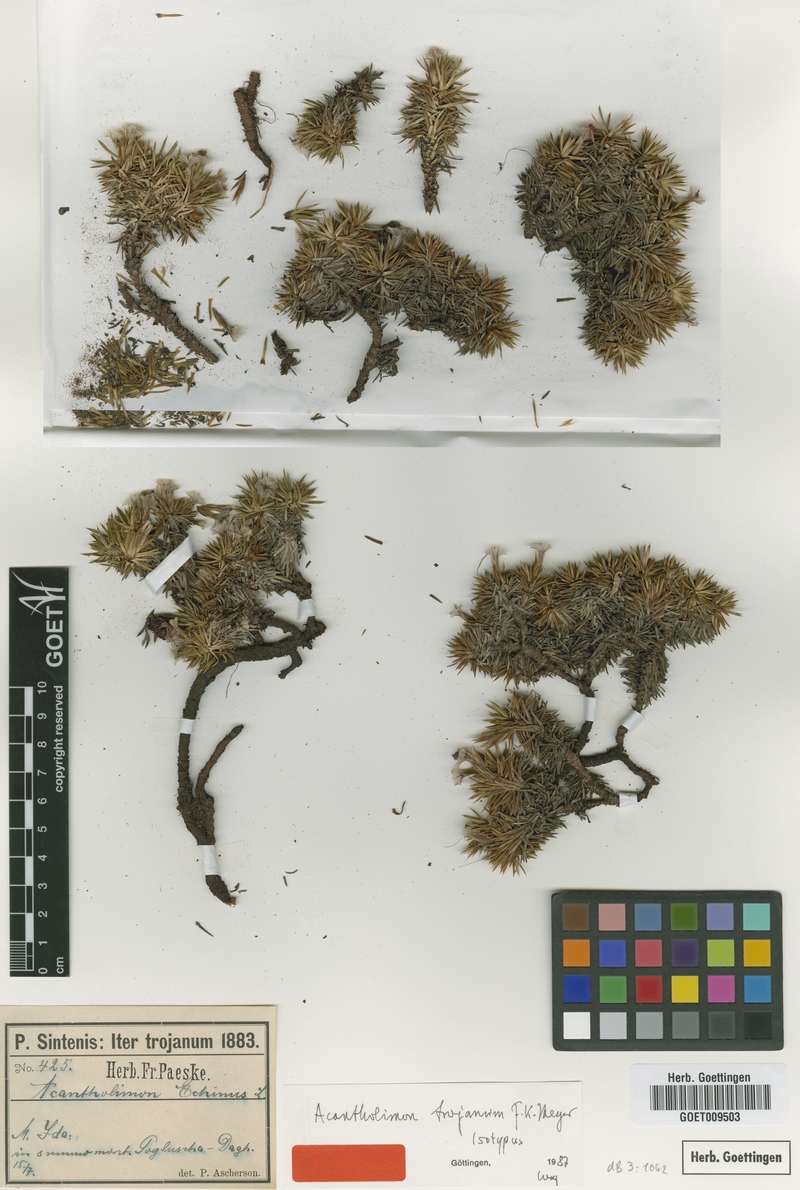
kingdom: Plantae
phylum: Tracheophyta
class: Magnoliopsida
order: Caryophyllales
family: Plumbaginaceae
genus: Acantholimon
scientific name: Acantholimon ulicinum
